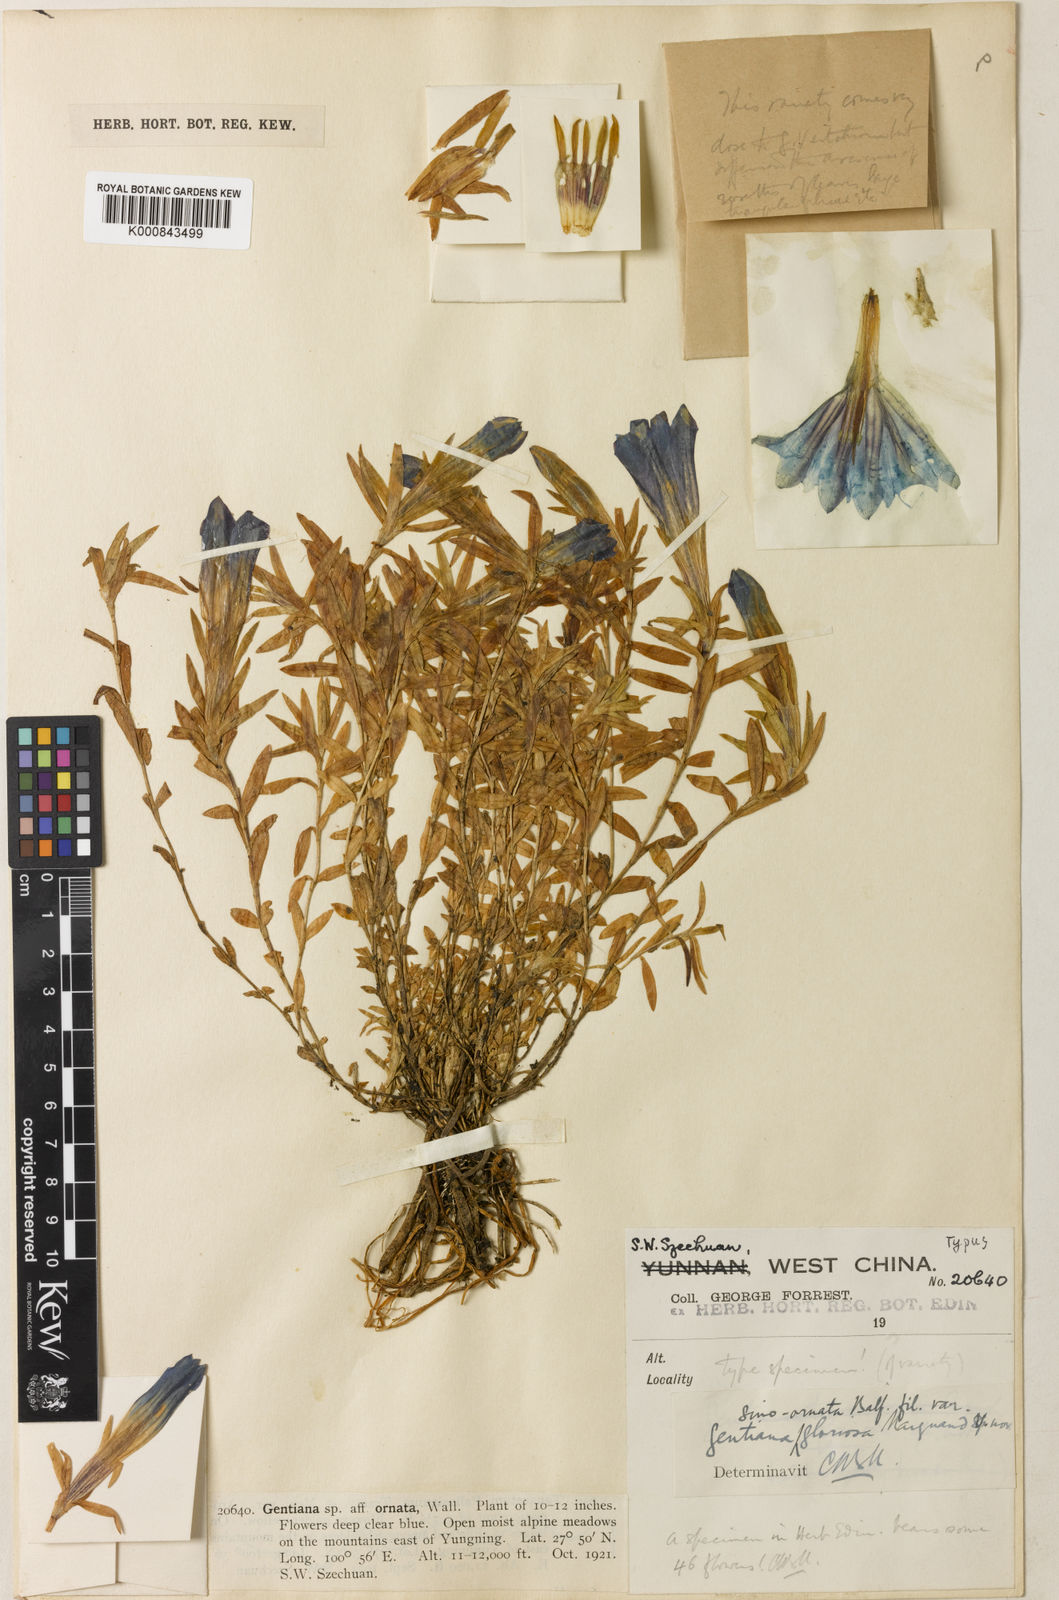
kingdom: Plantae
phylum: Tracheophyta
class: Magnoliopsida
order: Gentianales
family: Gentianaceae
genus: Gentiana
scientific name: Gentiana
